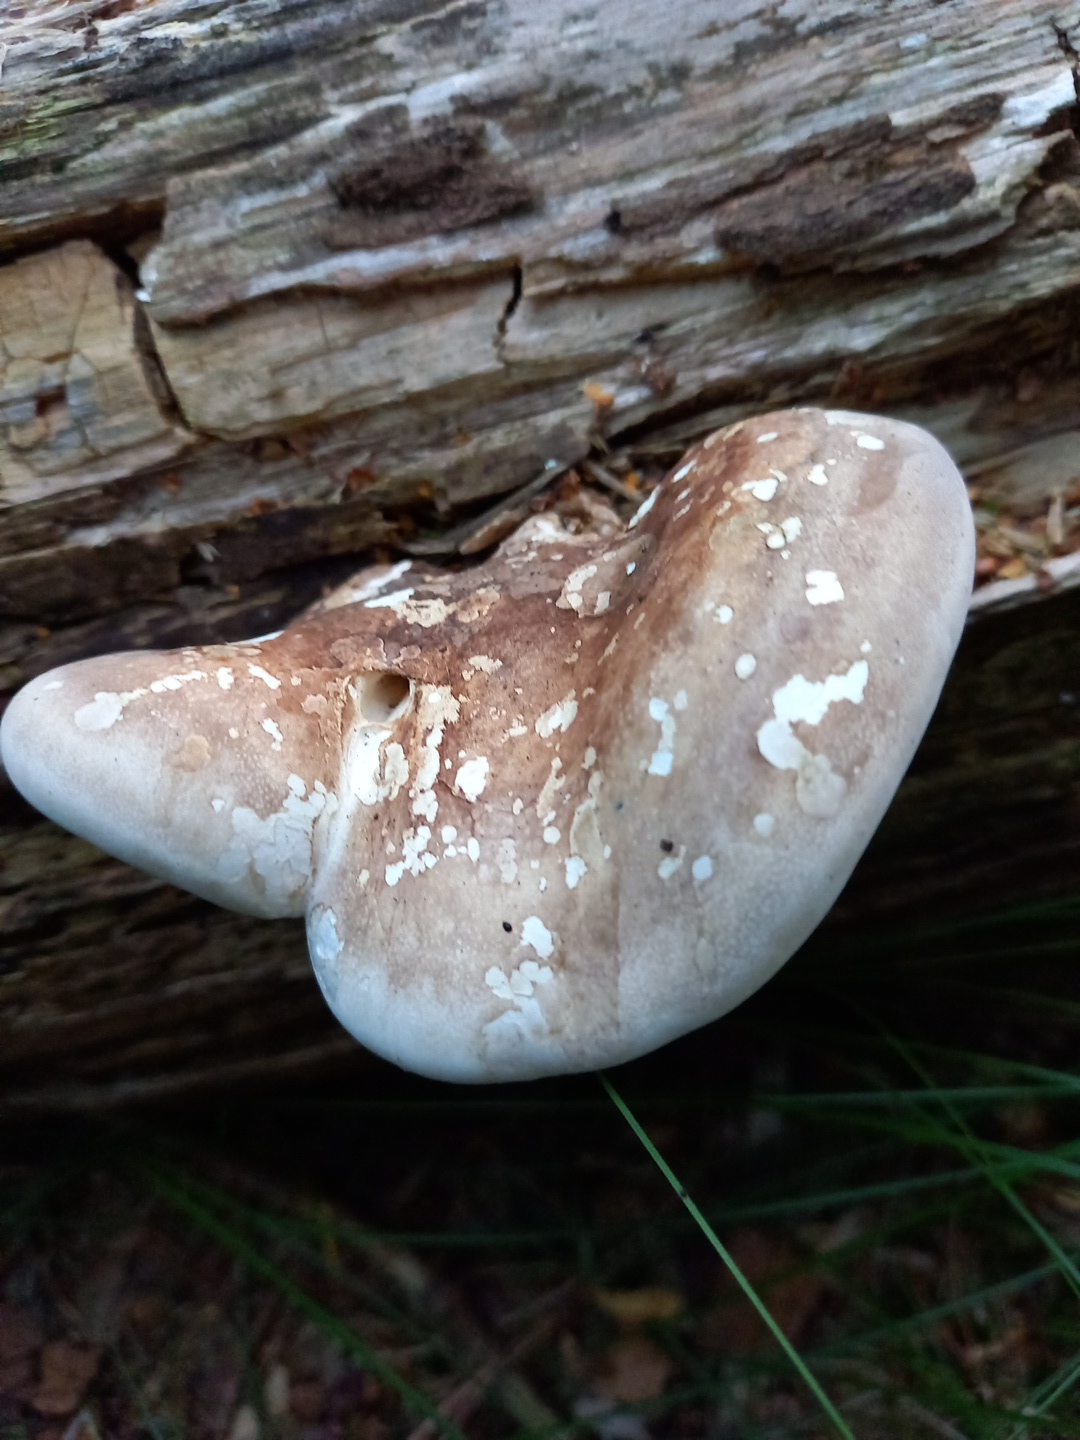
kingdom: Fungi
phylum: Basidiomycota
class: Agaricomycetes
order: Polyporales
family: Fomitopsidaceae
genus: Fomitopsis
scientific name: Fomitopsis betulina
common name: birkeporesvamp
